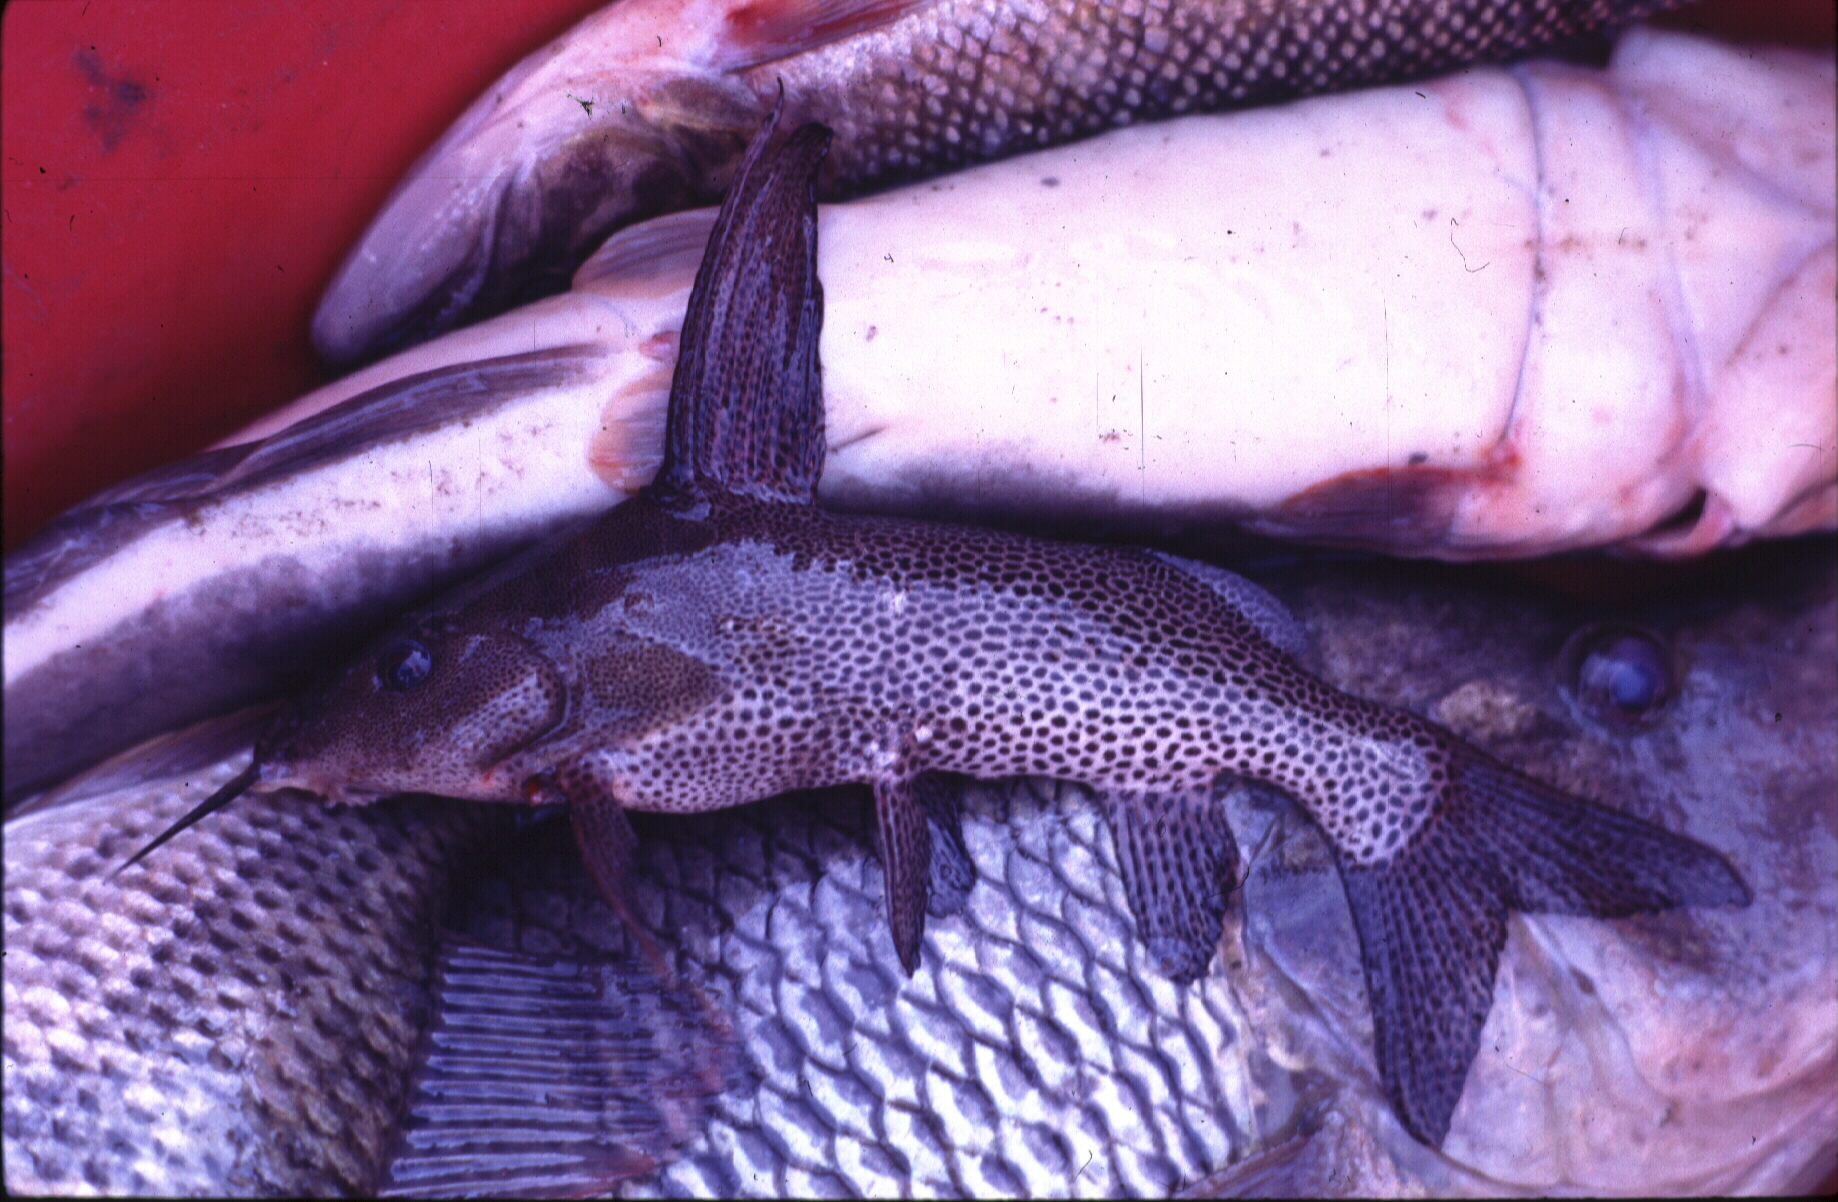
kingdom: Animalia
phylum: Chordata
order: Siluriformes
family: Mochokidae
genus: Synodontis
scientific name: Synodontis
